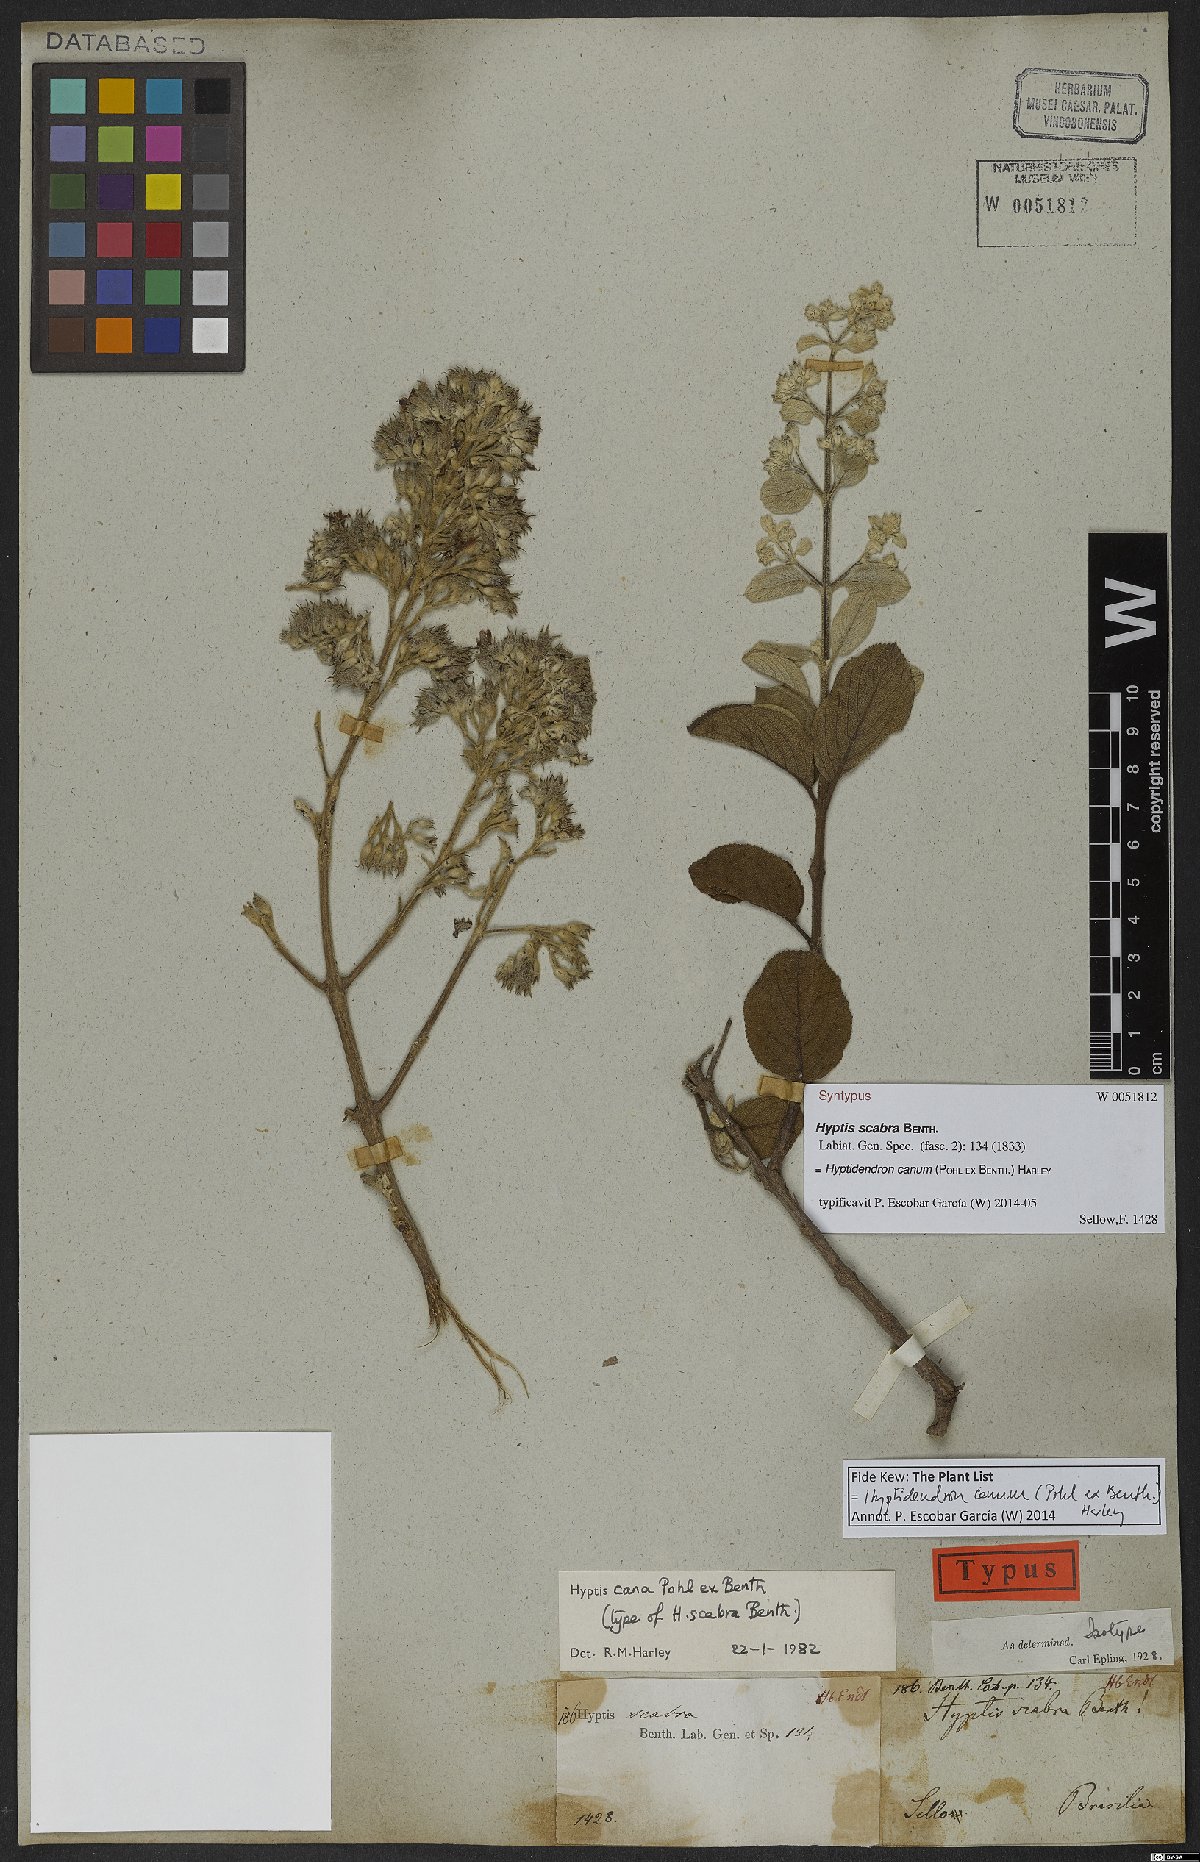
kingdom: Plantae
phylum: Tracheophyta
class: Magnoliopsida
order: Lamiales
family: Lamiaceae
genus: Hyptidendron
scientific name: Hyptidendron canum
